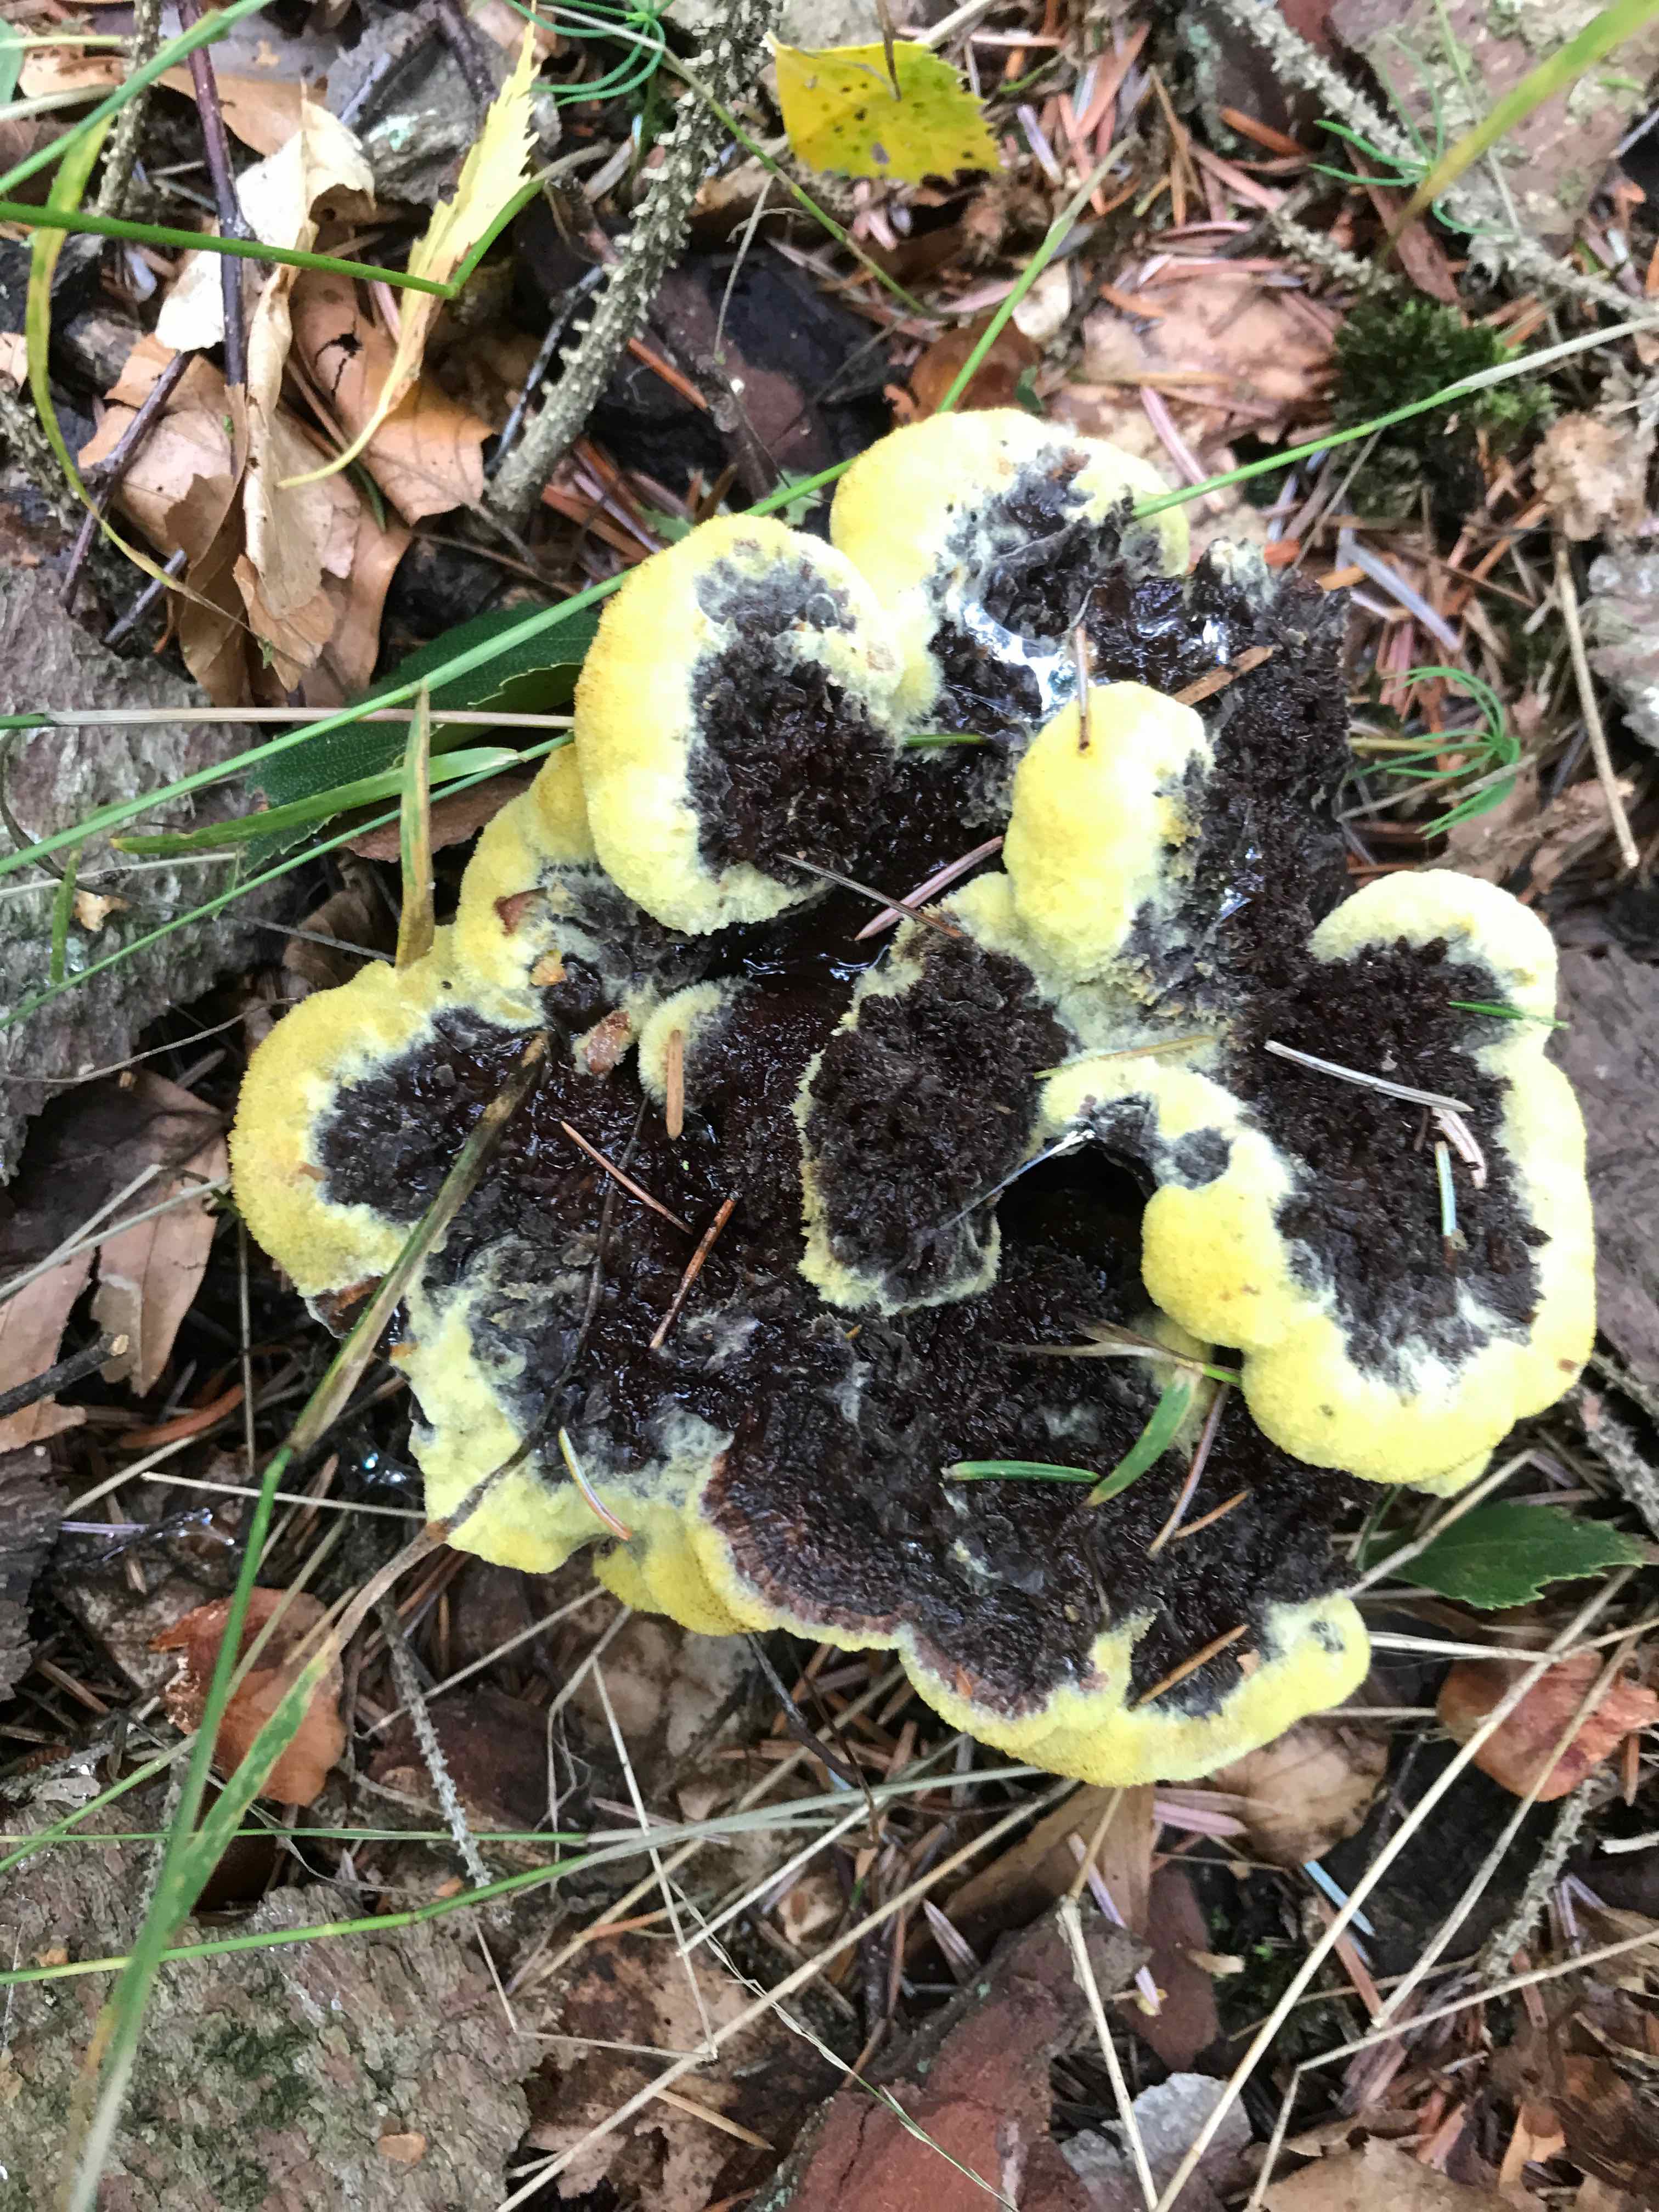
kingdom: Fungi
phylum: Basidiomycota
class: Agaricomycetes
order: Polyporales
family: Laetiporaceae
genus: Phaeolus
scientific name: Phaeolus schweinitzii
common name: brunporesvamp
